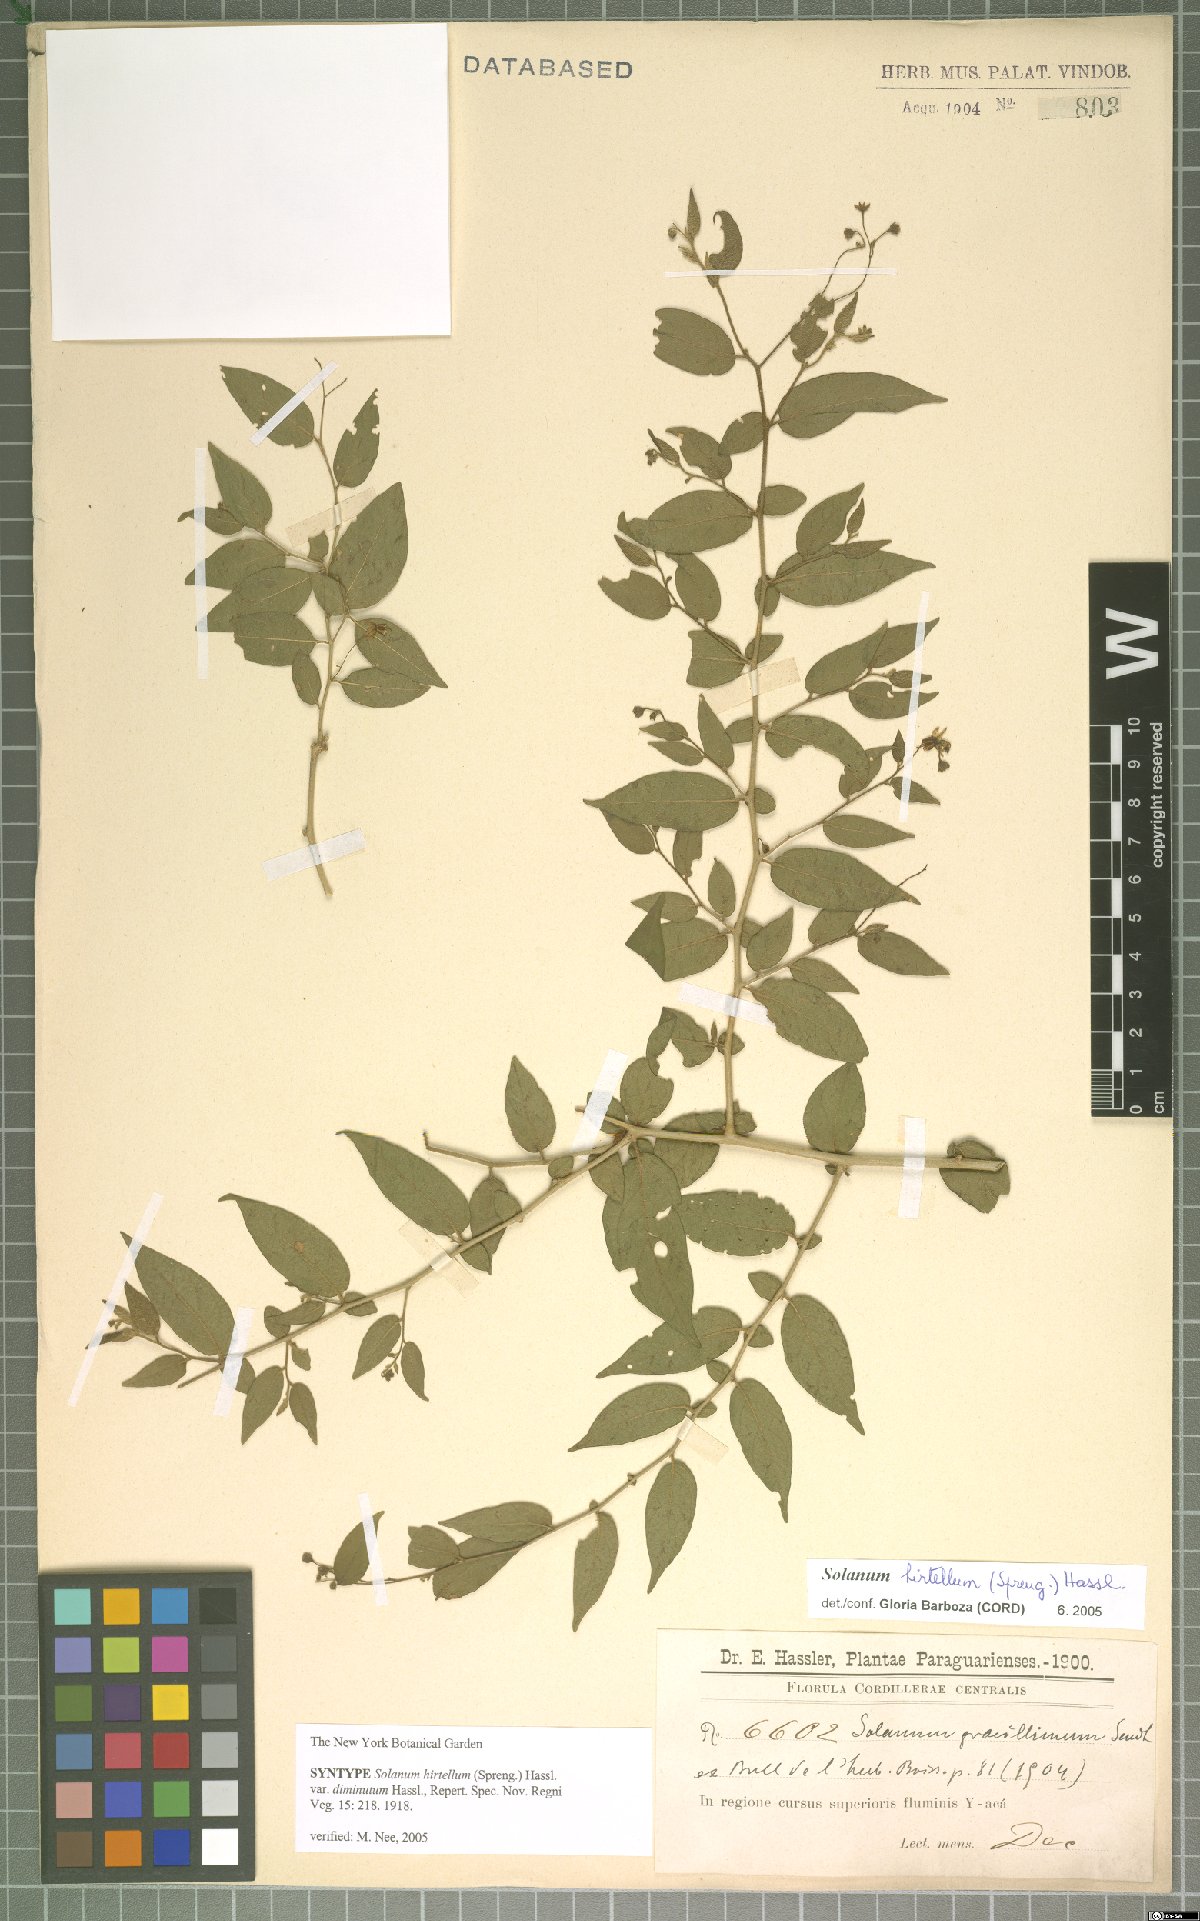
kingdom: Plantae
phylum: Tracheophyta
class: Magnoliopsida
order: Solanales
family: Solanaceae
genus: Solanum
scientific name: Solanum hirtellum
